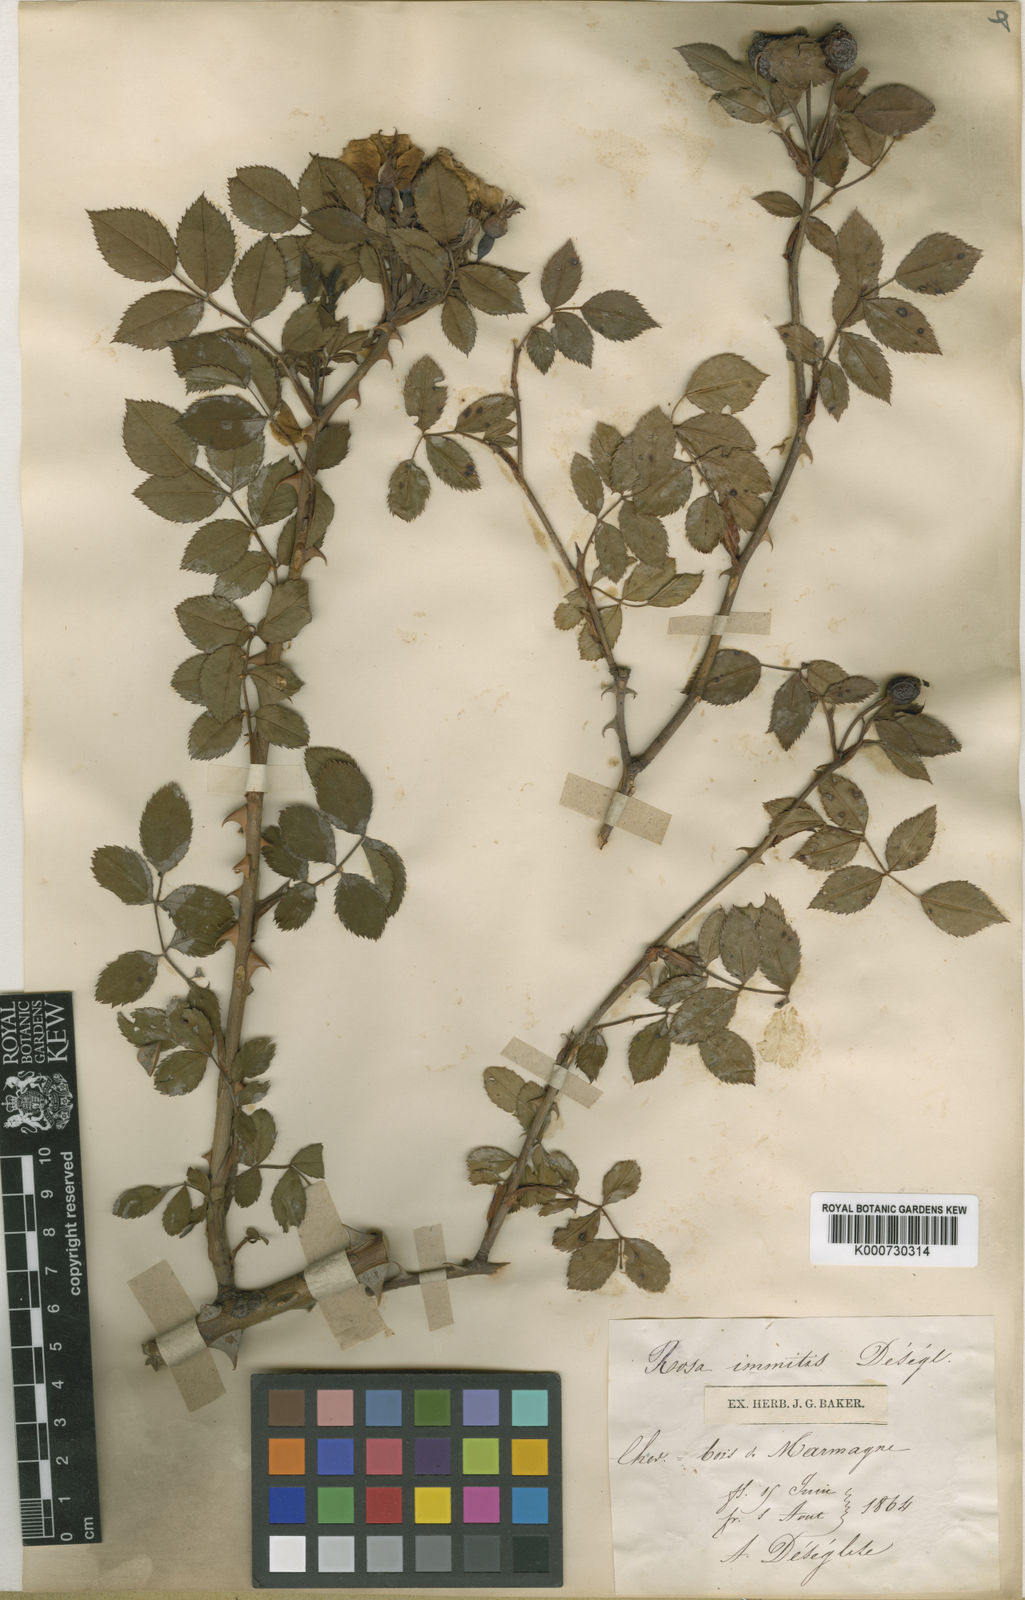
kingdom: Plantae
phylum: Tracheophyta
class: Magnoliopsida
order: Rosales
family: Rosaceae
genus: Rosa
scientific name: Rosa stylosa
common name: Short-styled field-rose
